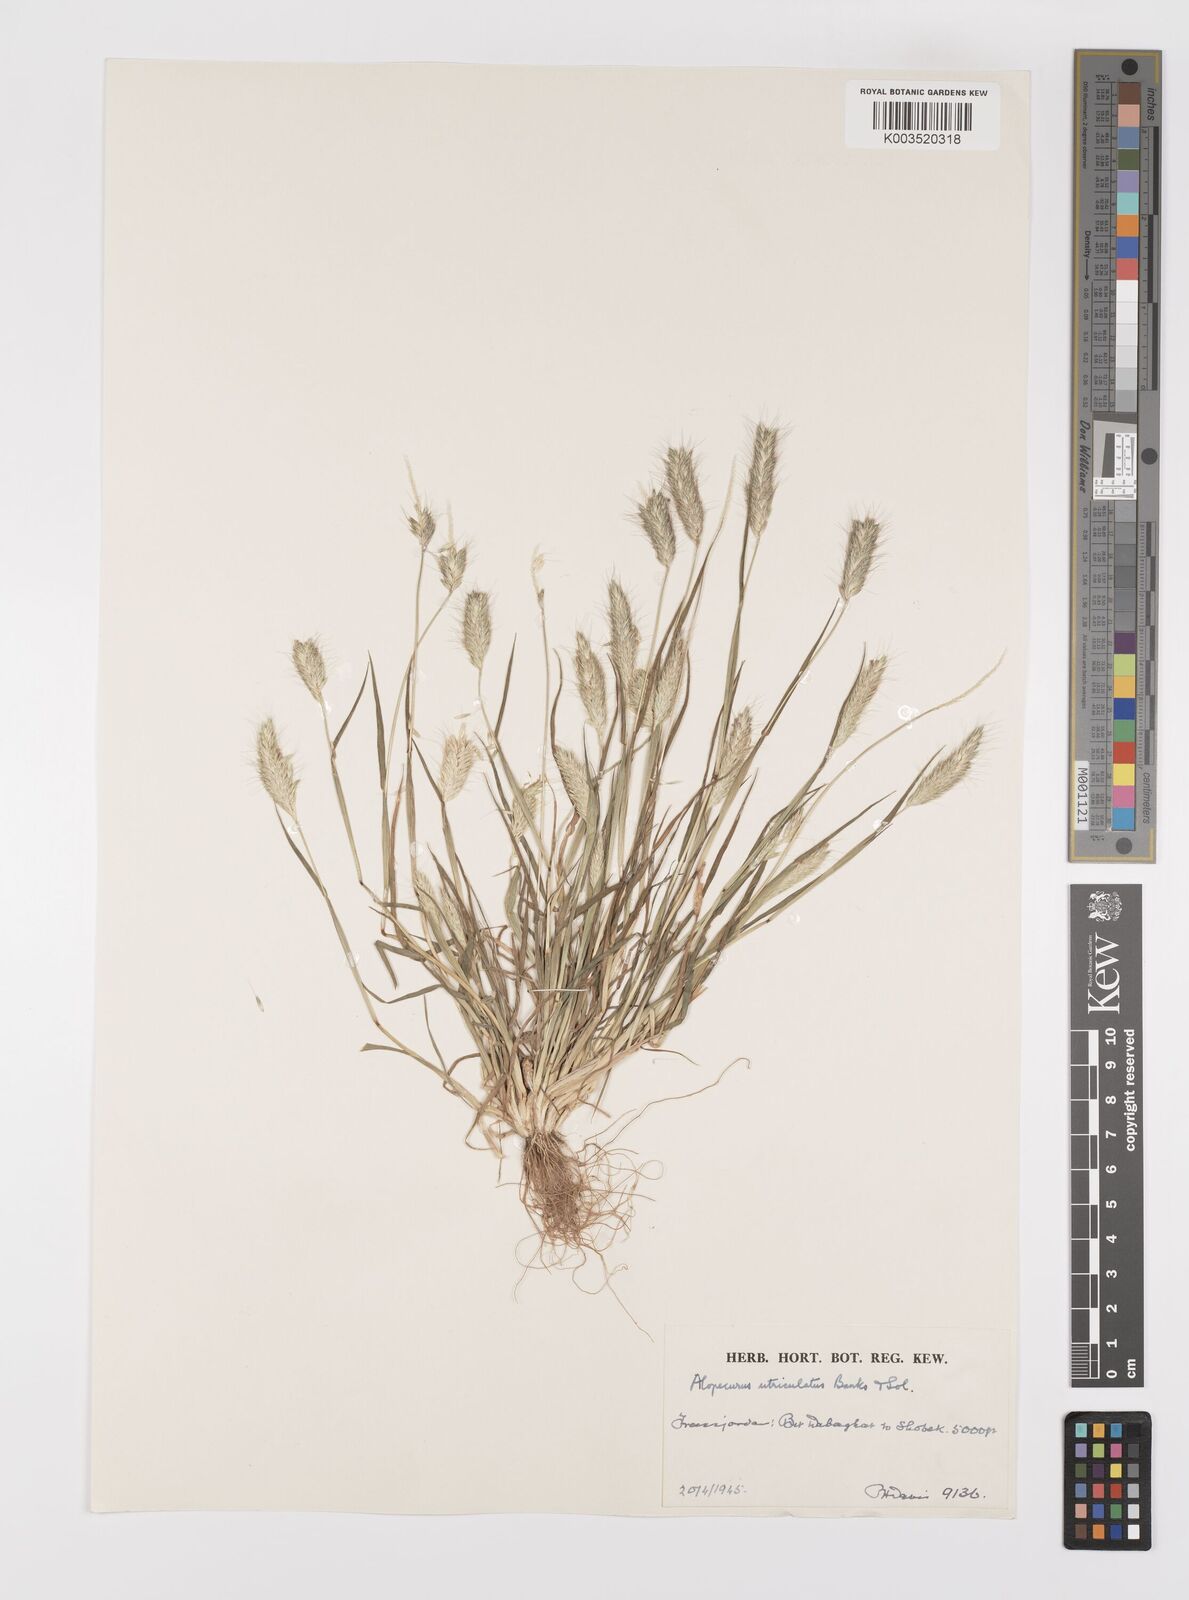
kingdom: Plantae
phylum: Tracheophyta
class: Liliopsida
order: Poales
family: Poaceae
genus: Alopecurus
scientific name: Alopecurus utriculatus
